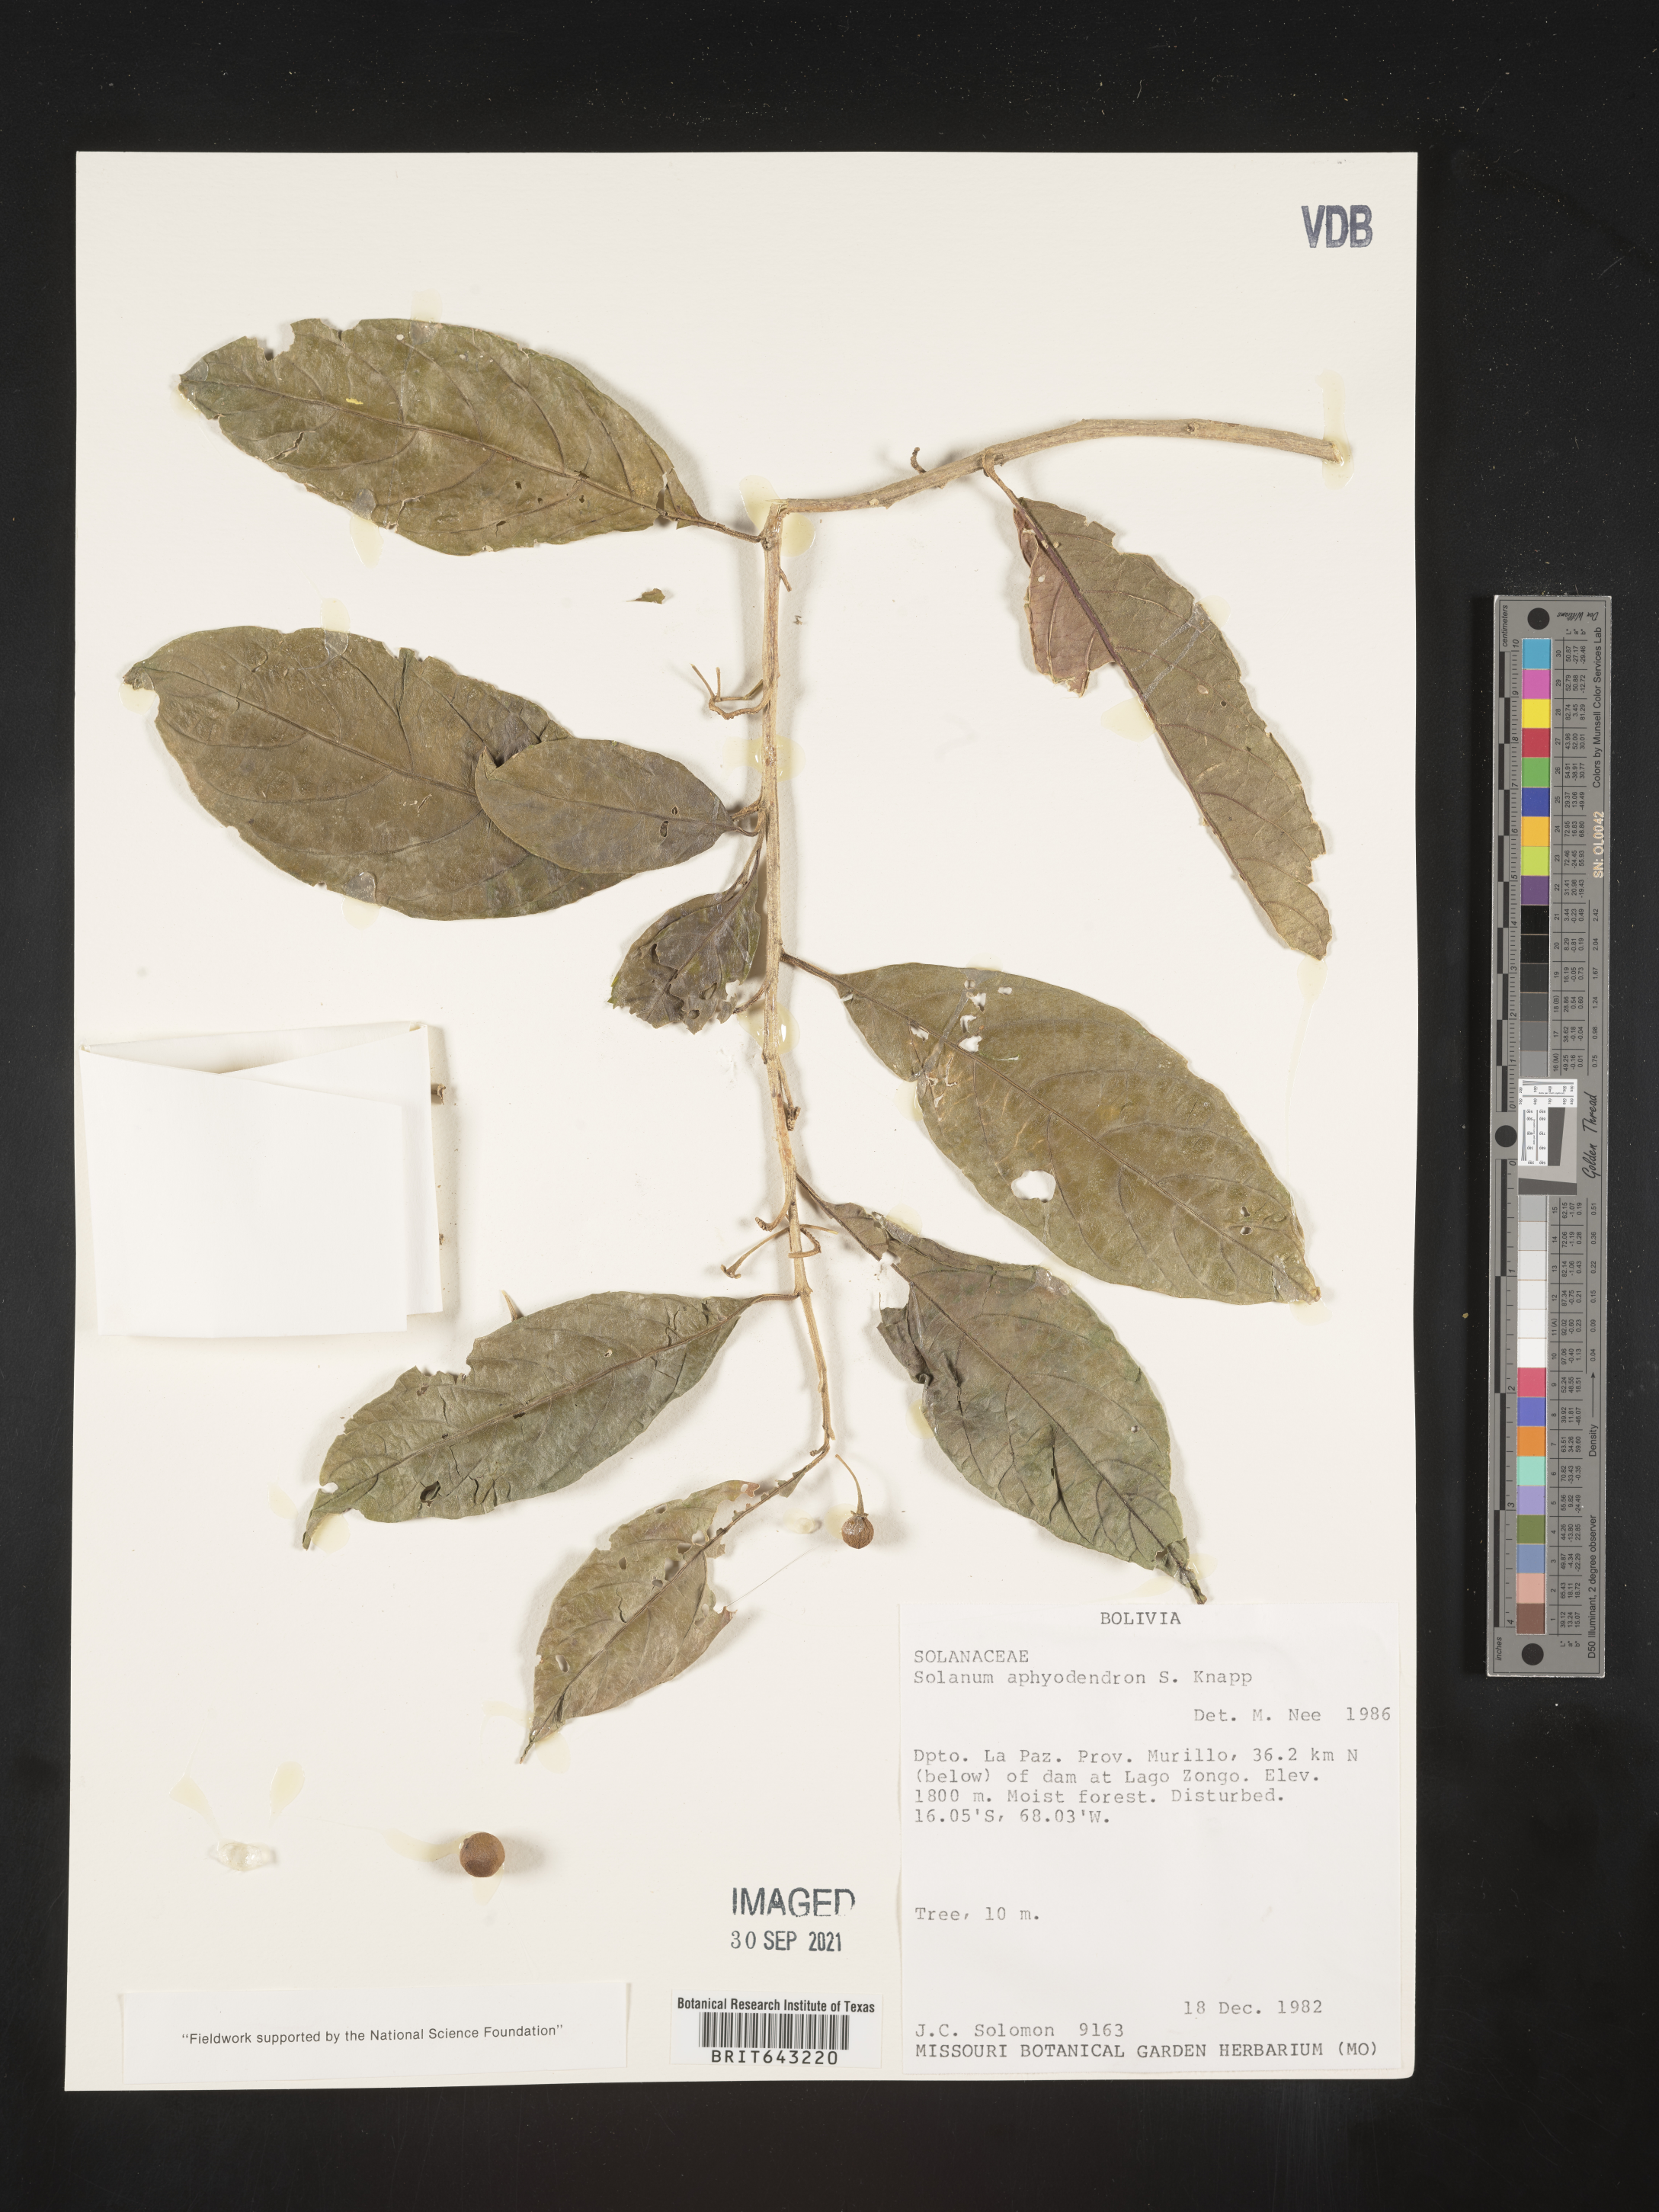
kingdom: Plantae
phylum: Tracheophyta
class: Magnoliopsida
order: Solanales
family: Solanaceae
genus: Solanum
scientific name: Solanum
